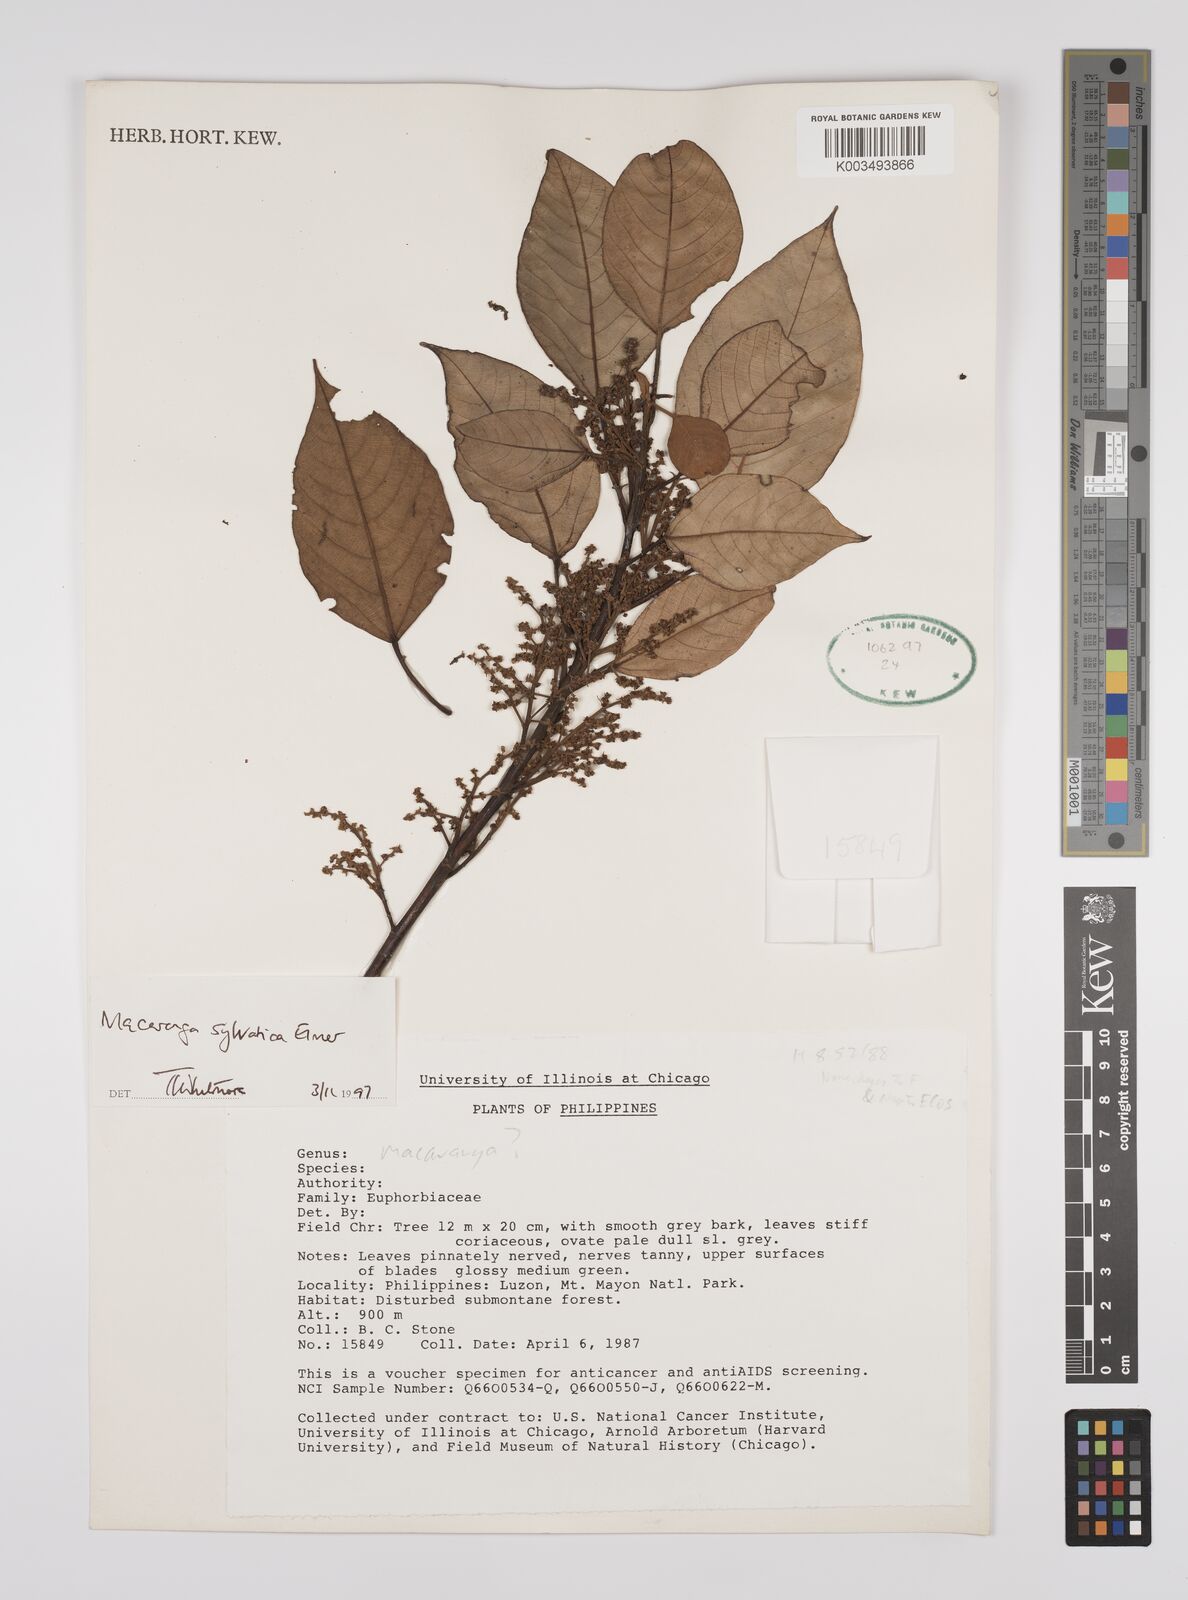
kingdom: Plantae
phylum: Tracheophyta
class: Magnoliopsida
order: Malpighiales
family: Euphorbiaceae
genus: Macaranga
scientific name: Macaranga sylvatica
